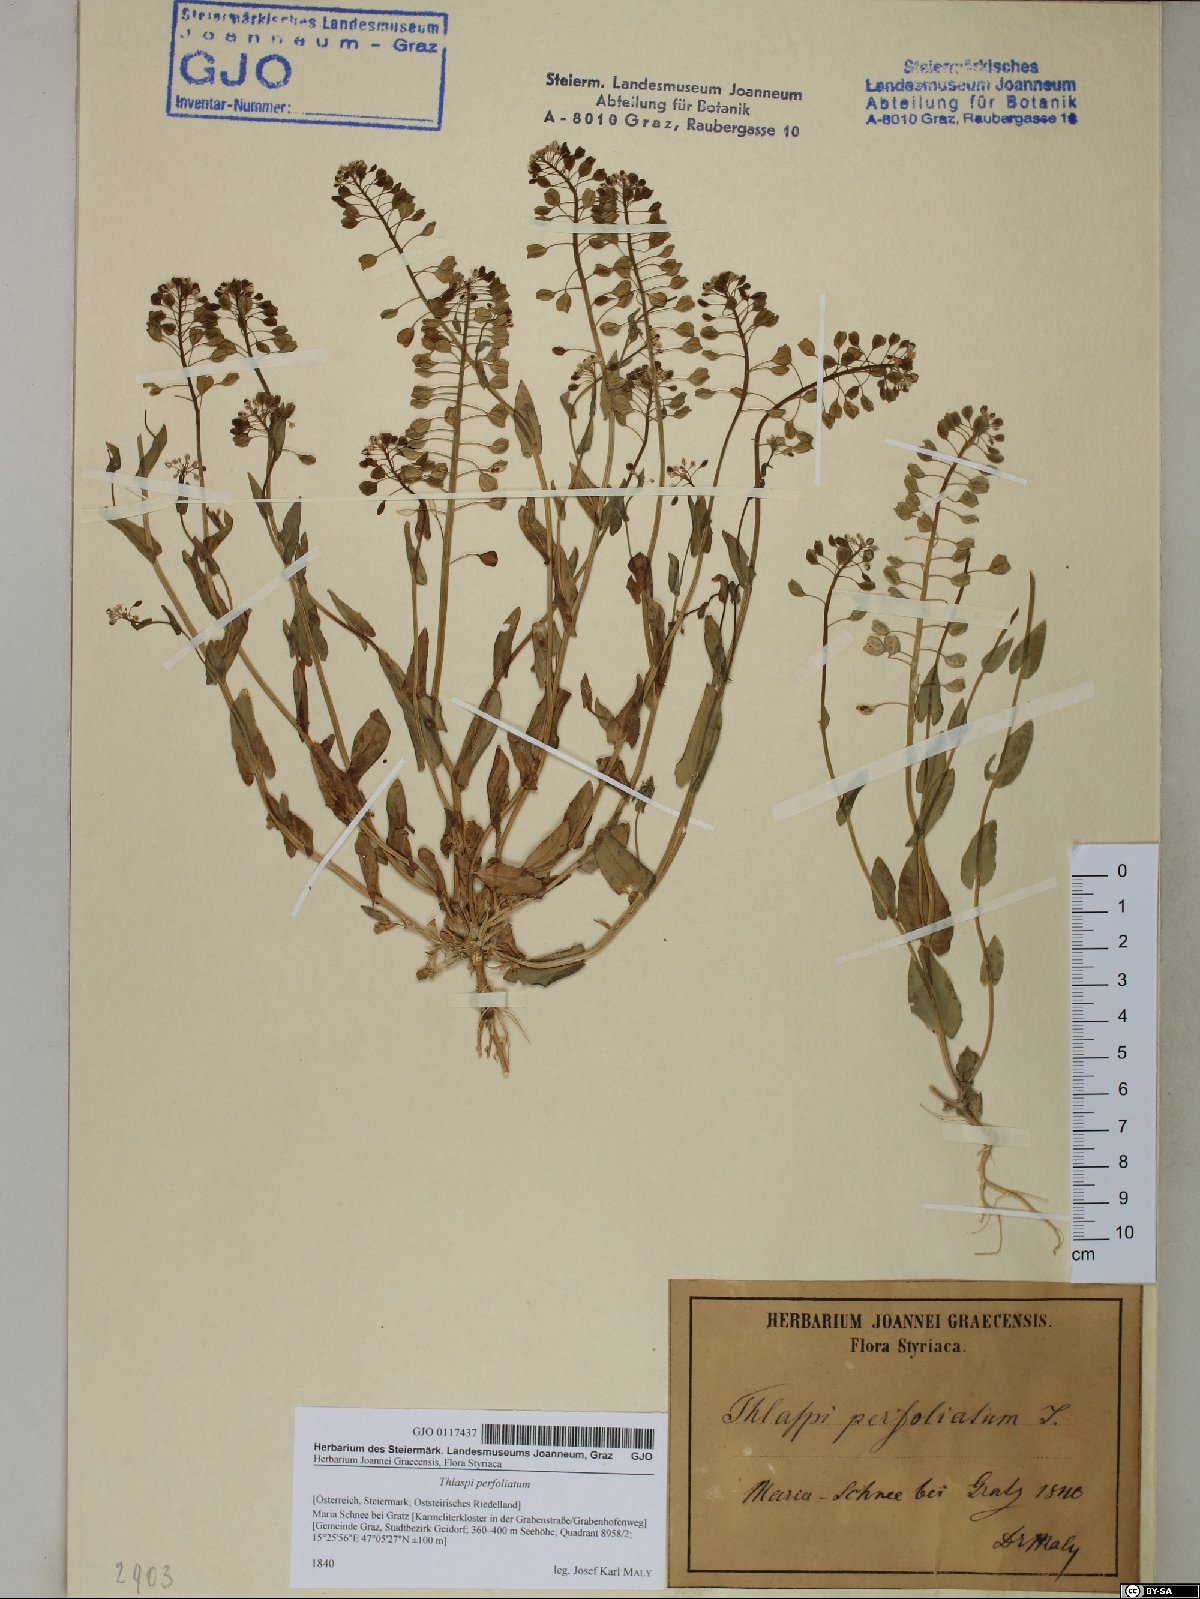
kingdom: Plantae
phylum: Tracheophyta
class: Magnoliopsida
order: Brassicales
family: Brassicaceae
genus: Noccaea
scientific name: Noccaea perfoliata
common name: Perfoliate pennycress
